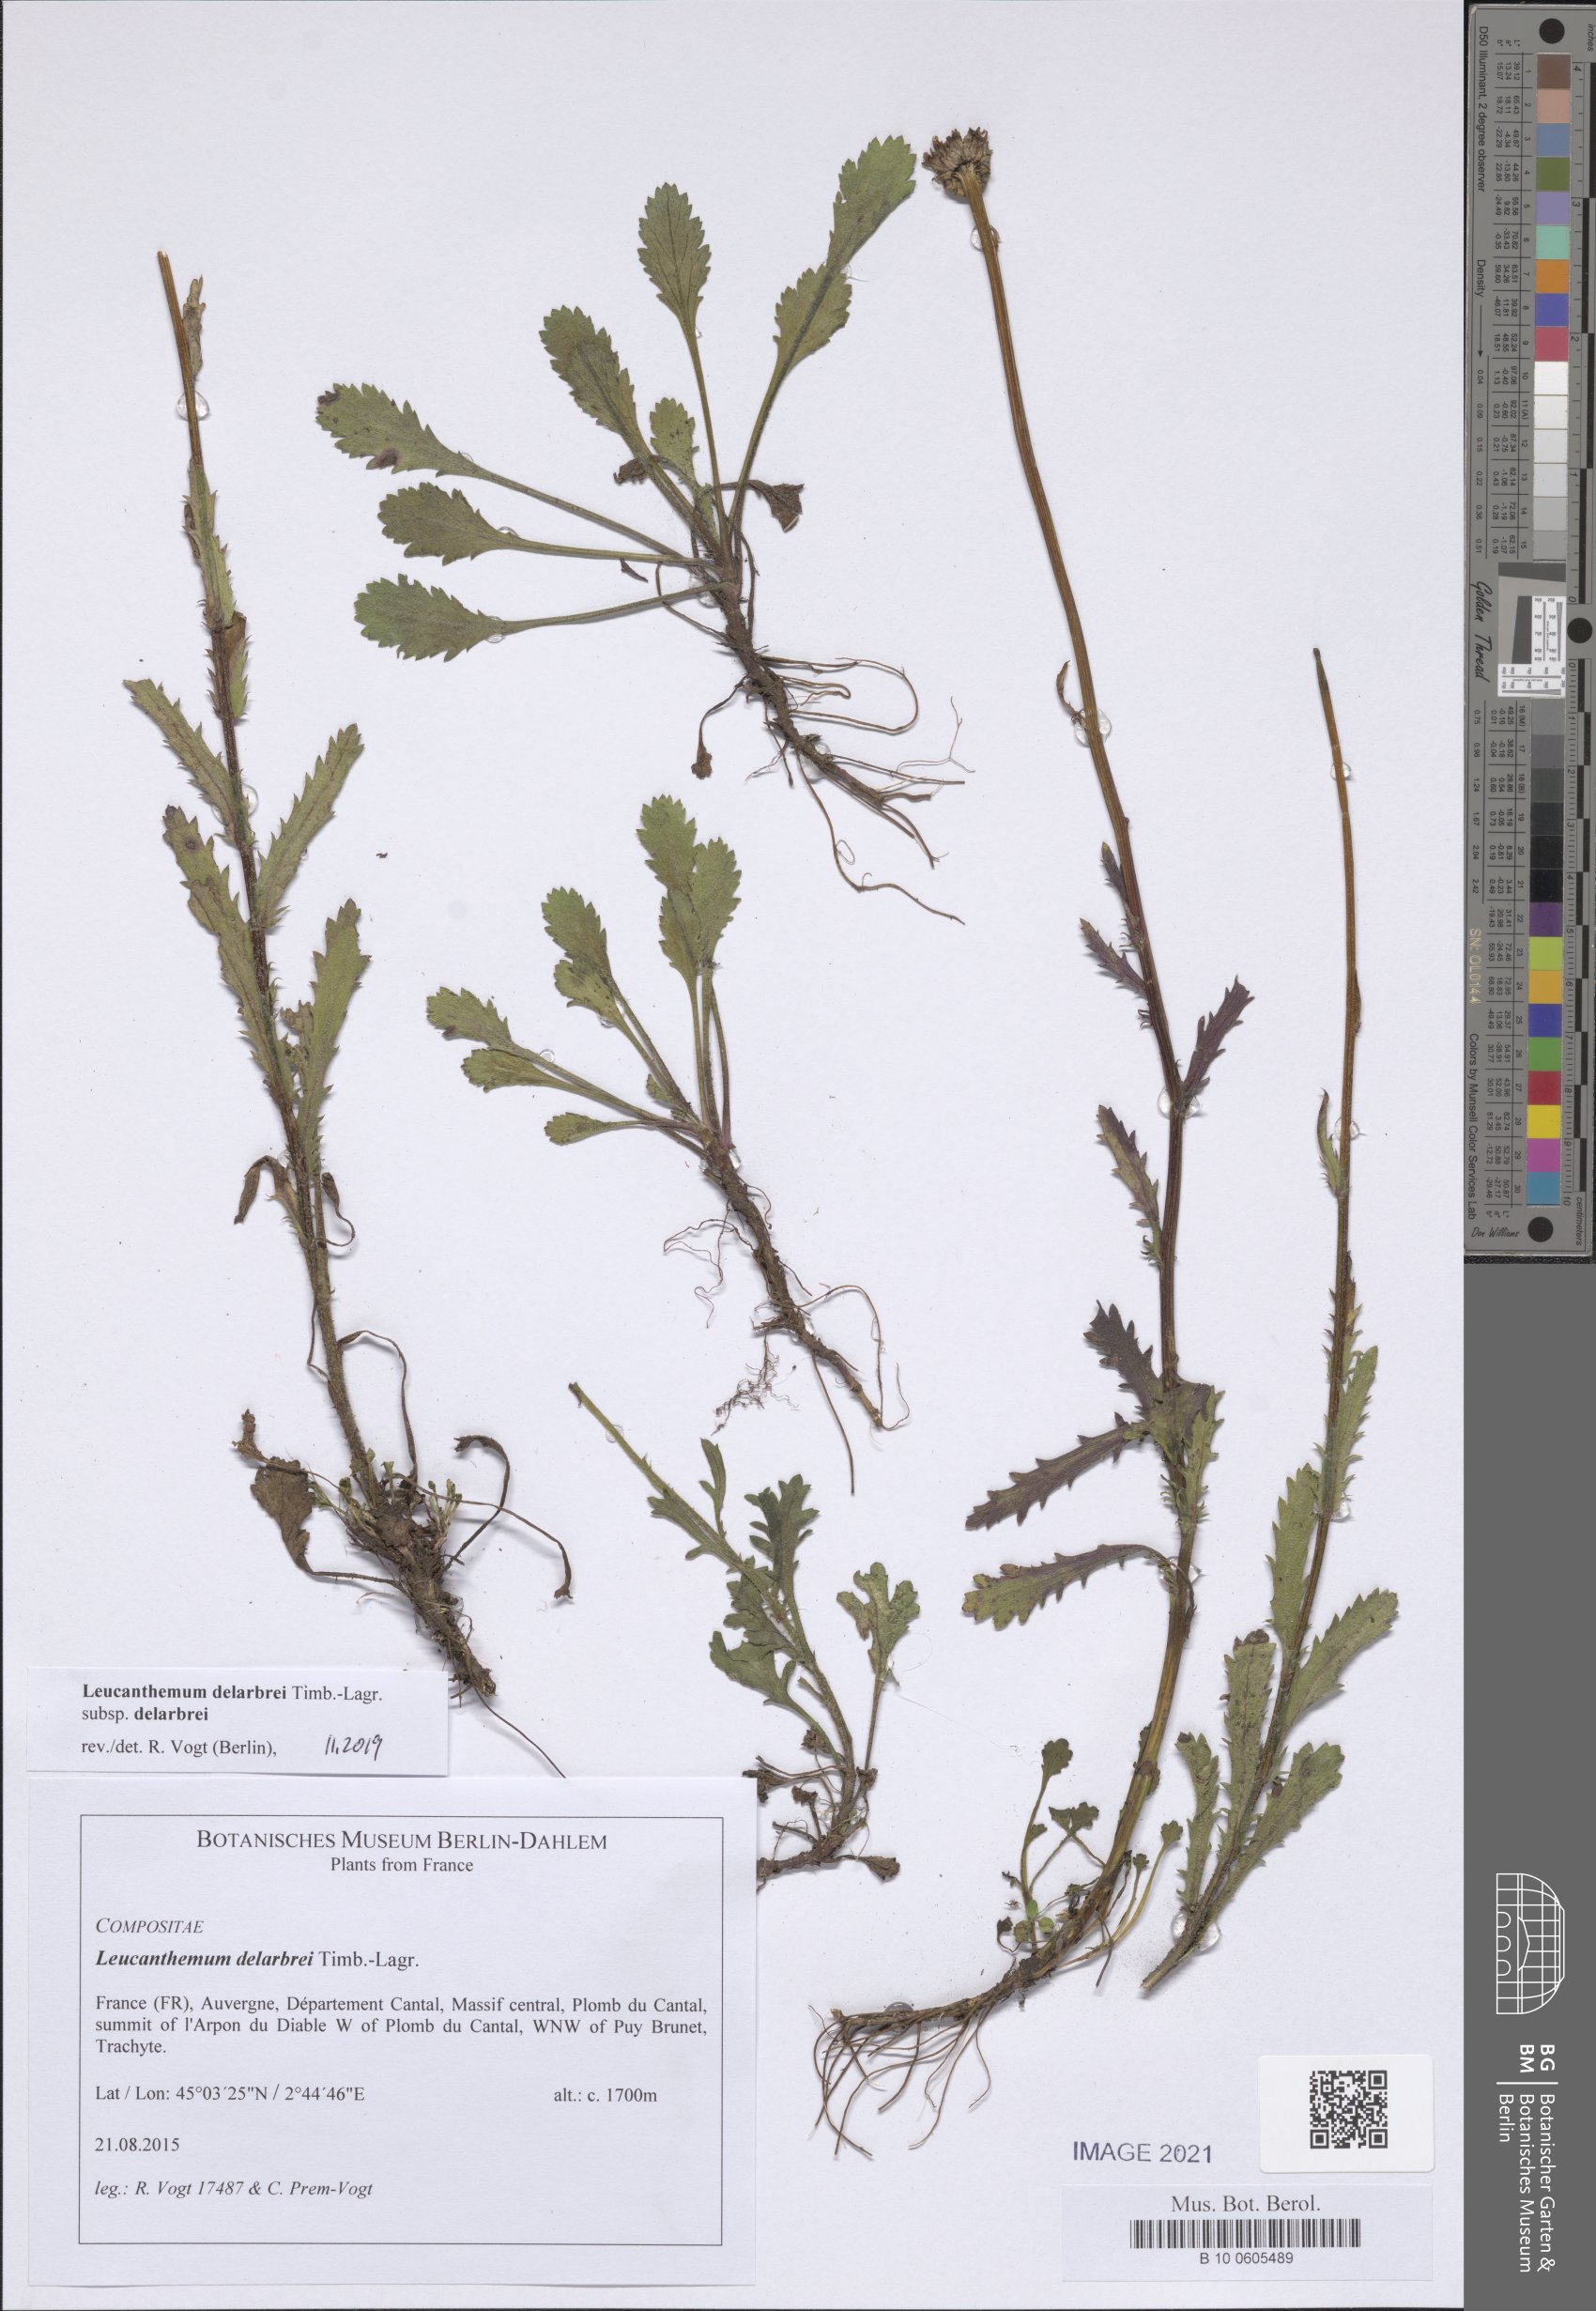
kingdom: Plantae
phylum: Tracheophyta
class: Magnoliopsida
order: Asterales
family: Asteraceae
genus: Leucanthemum
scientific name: Leucanthemum delarbrei
